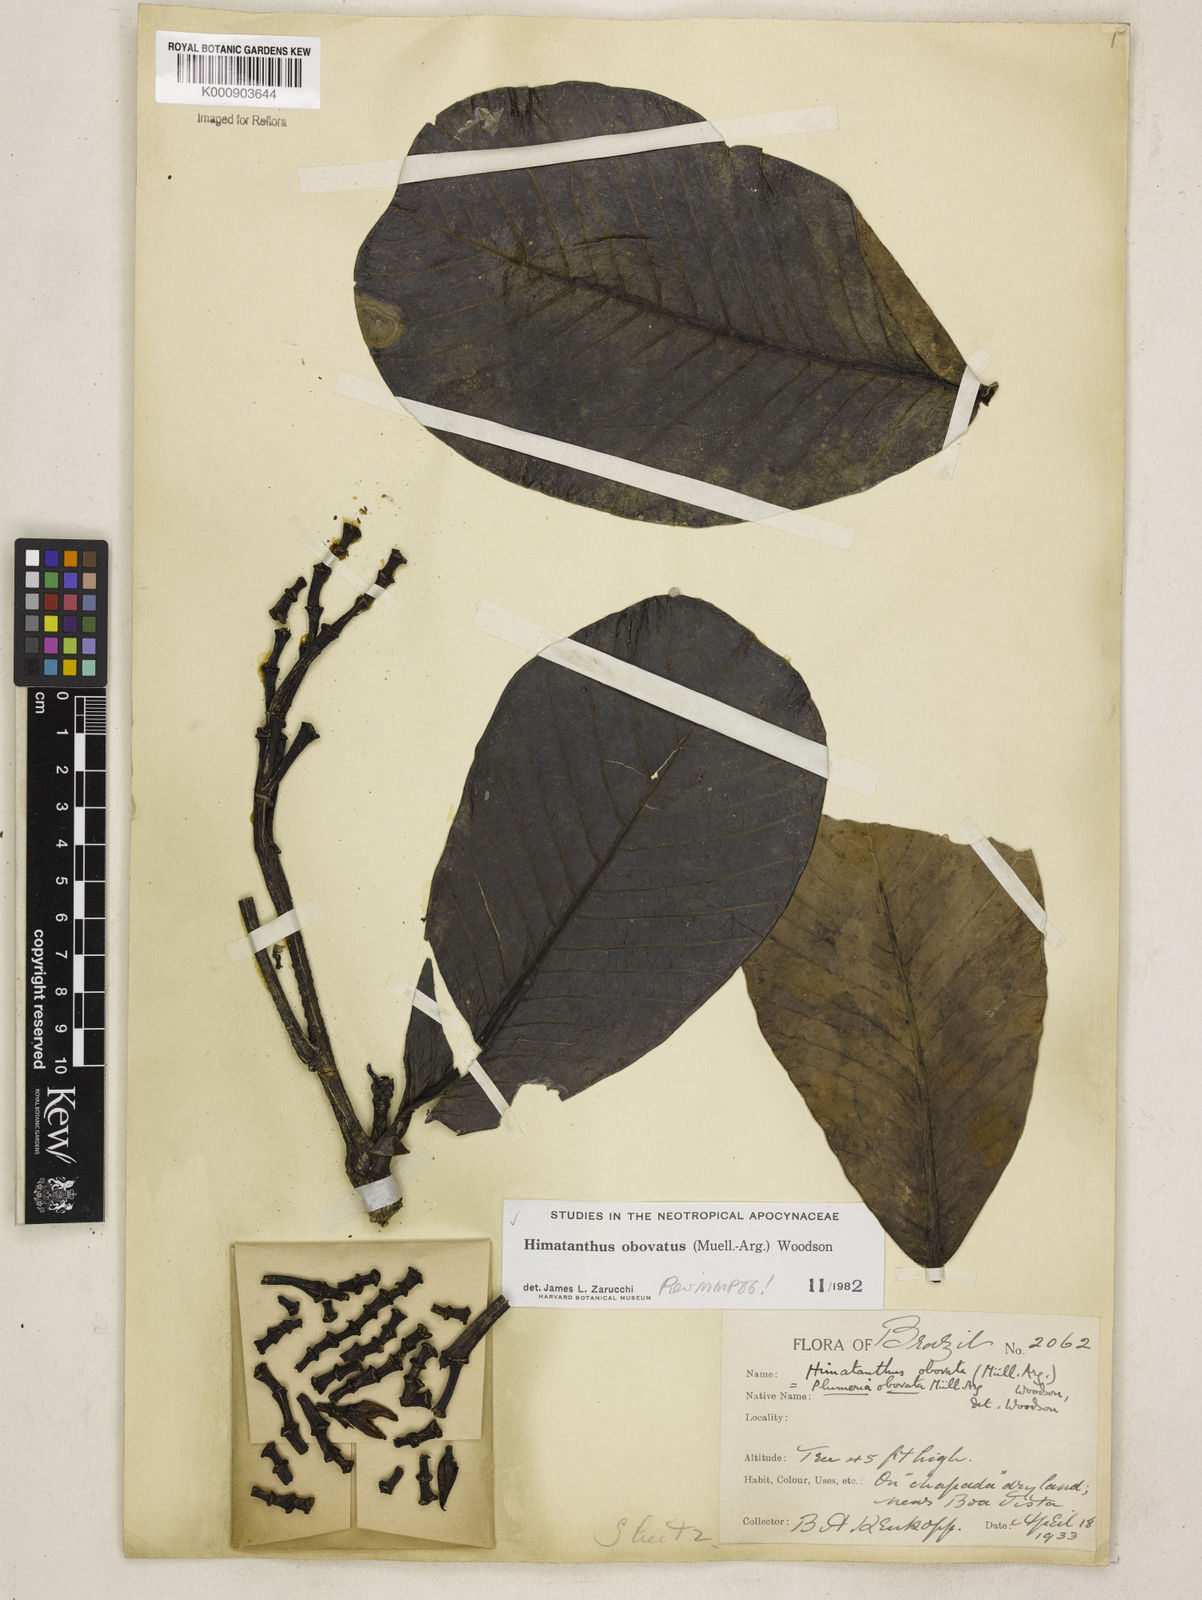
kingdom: Plantae
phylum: Tracheophyta
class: Magnoliopsida
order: Gentianales
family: Apocynaceae
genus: Himatanthus
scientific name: Himatanthus
